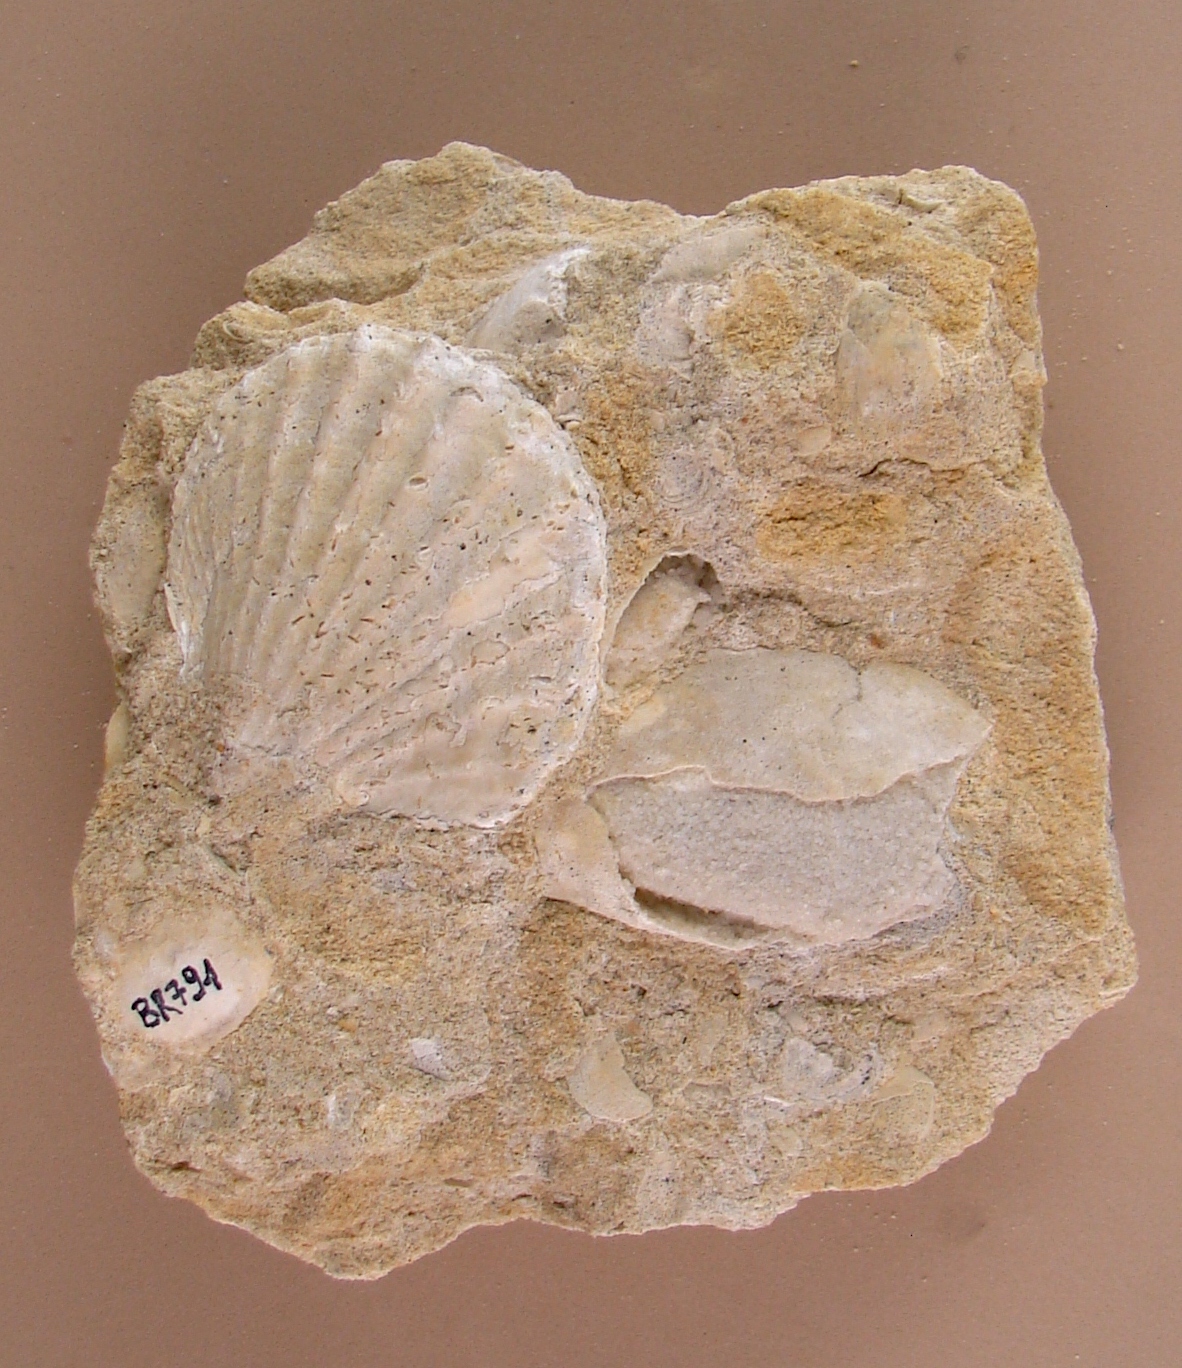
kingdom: Animalia
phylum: Mollusca
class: Bivalvia
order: Limida
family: Limidae
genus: Ctenostreon
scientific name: Ctenostreon
